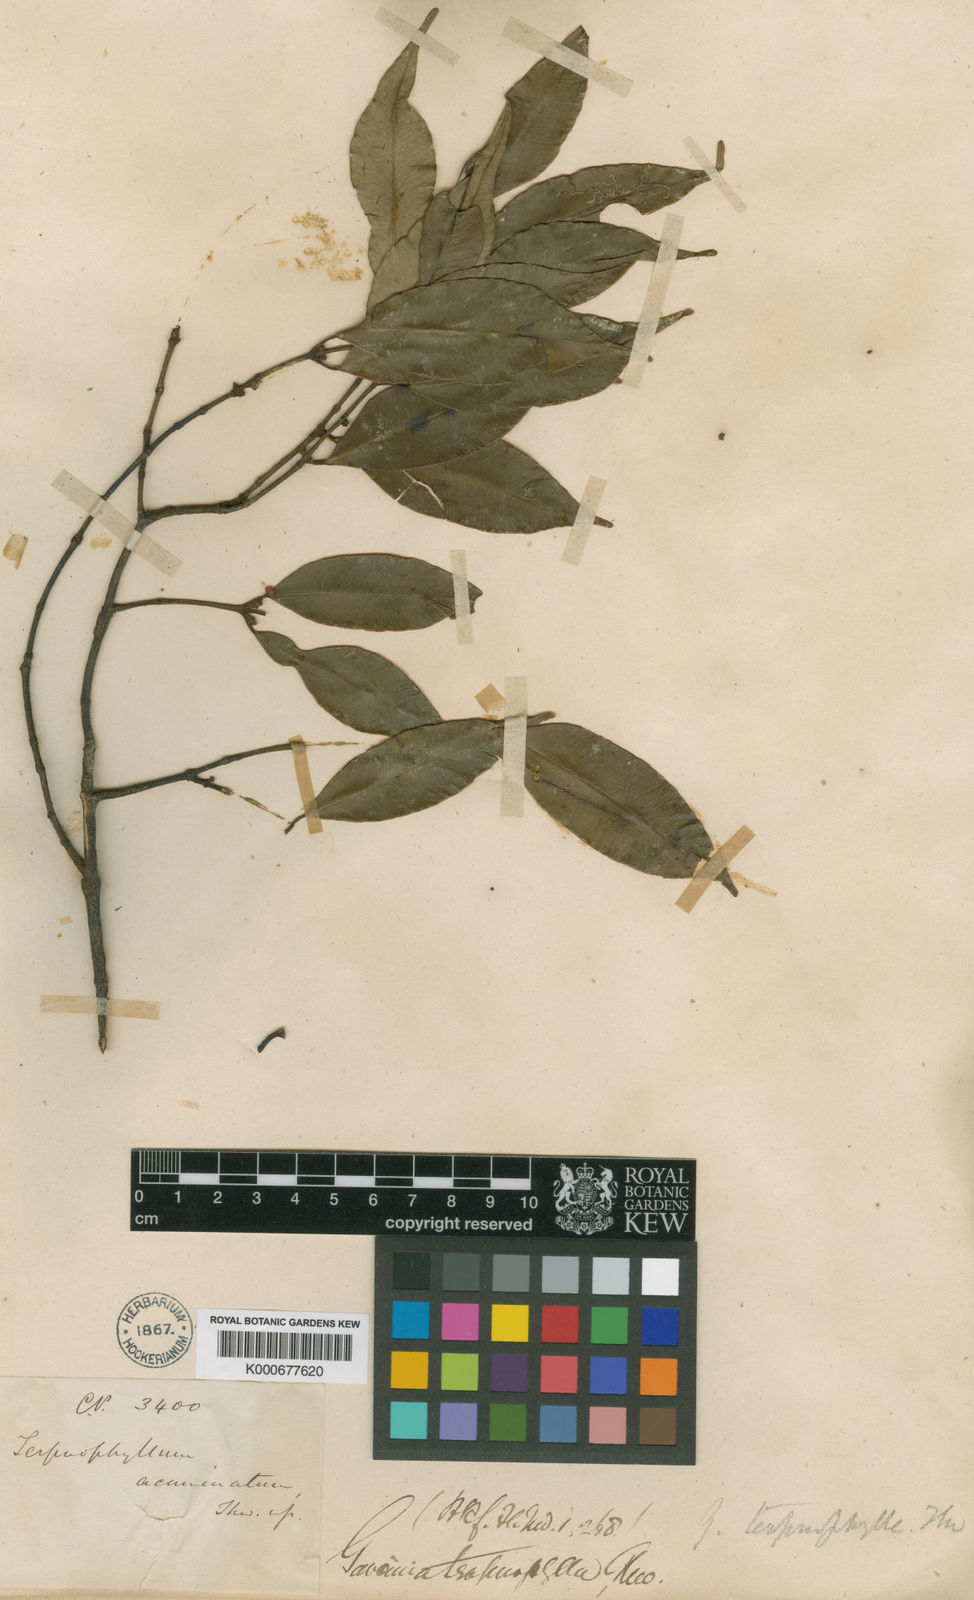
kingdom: Plantae
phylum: Tracheophyta
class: Magnoliopsida
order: Malpighiales
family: Clusiaceae
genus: Garcinia
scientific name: Garcinia terpnophylla
